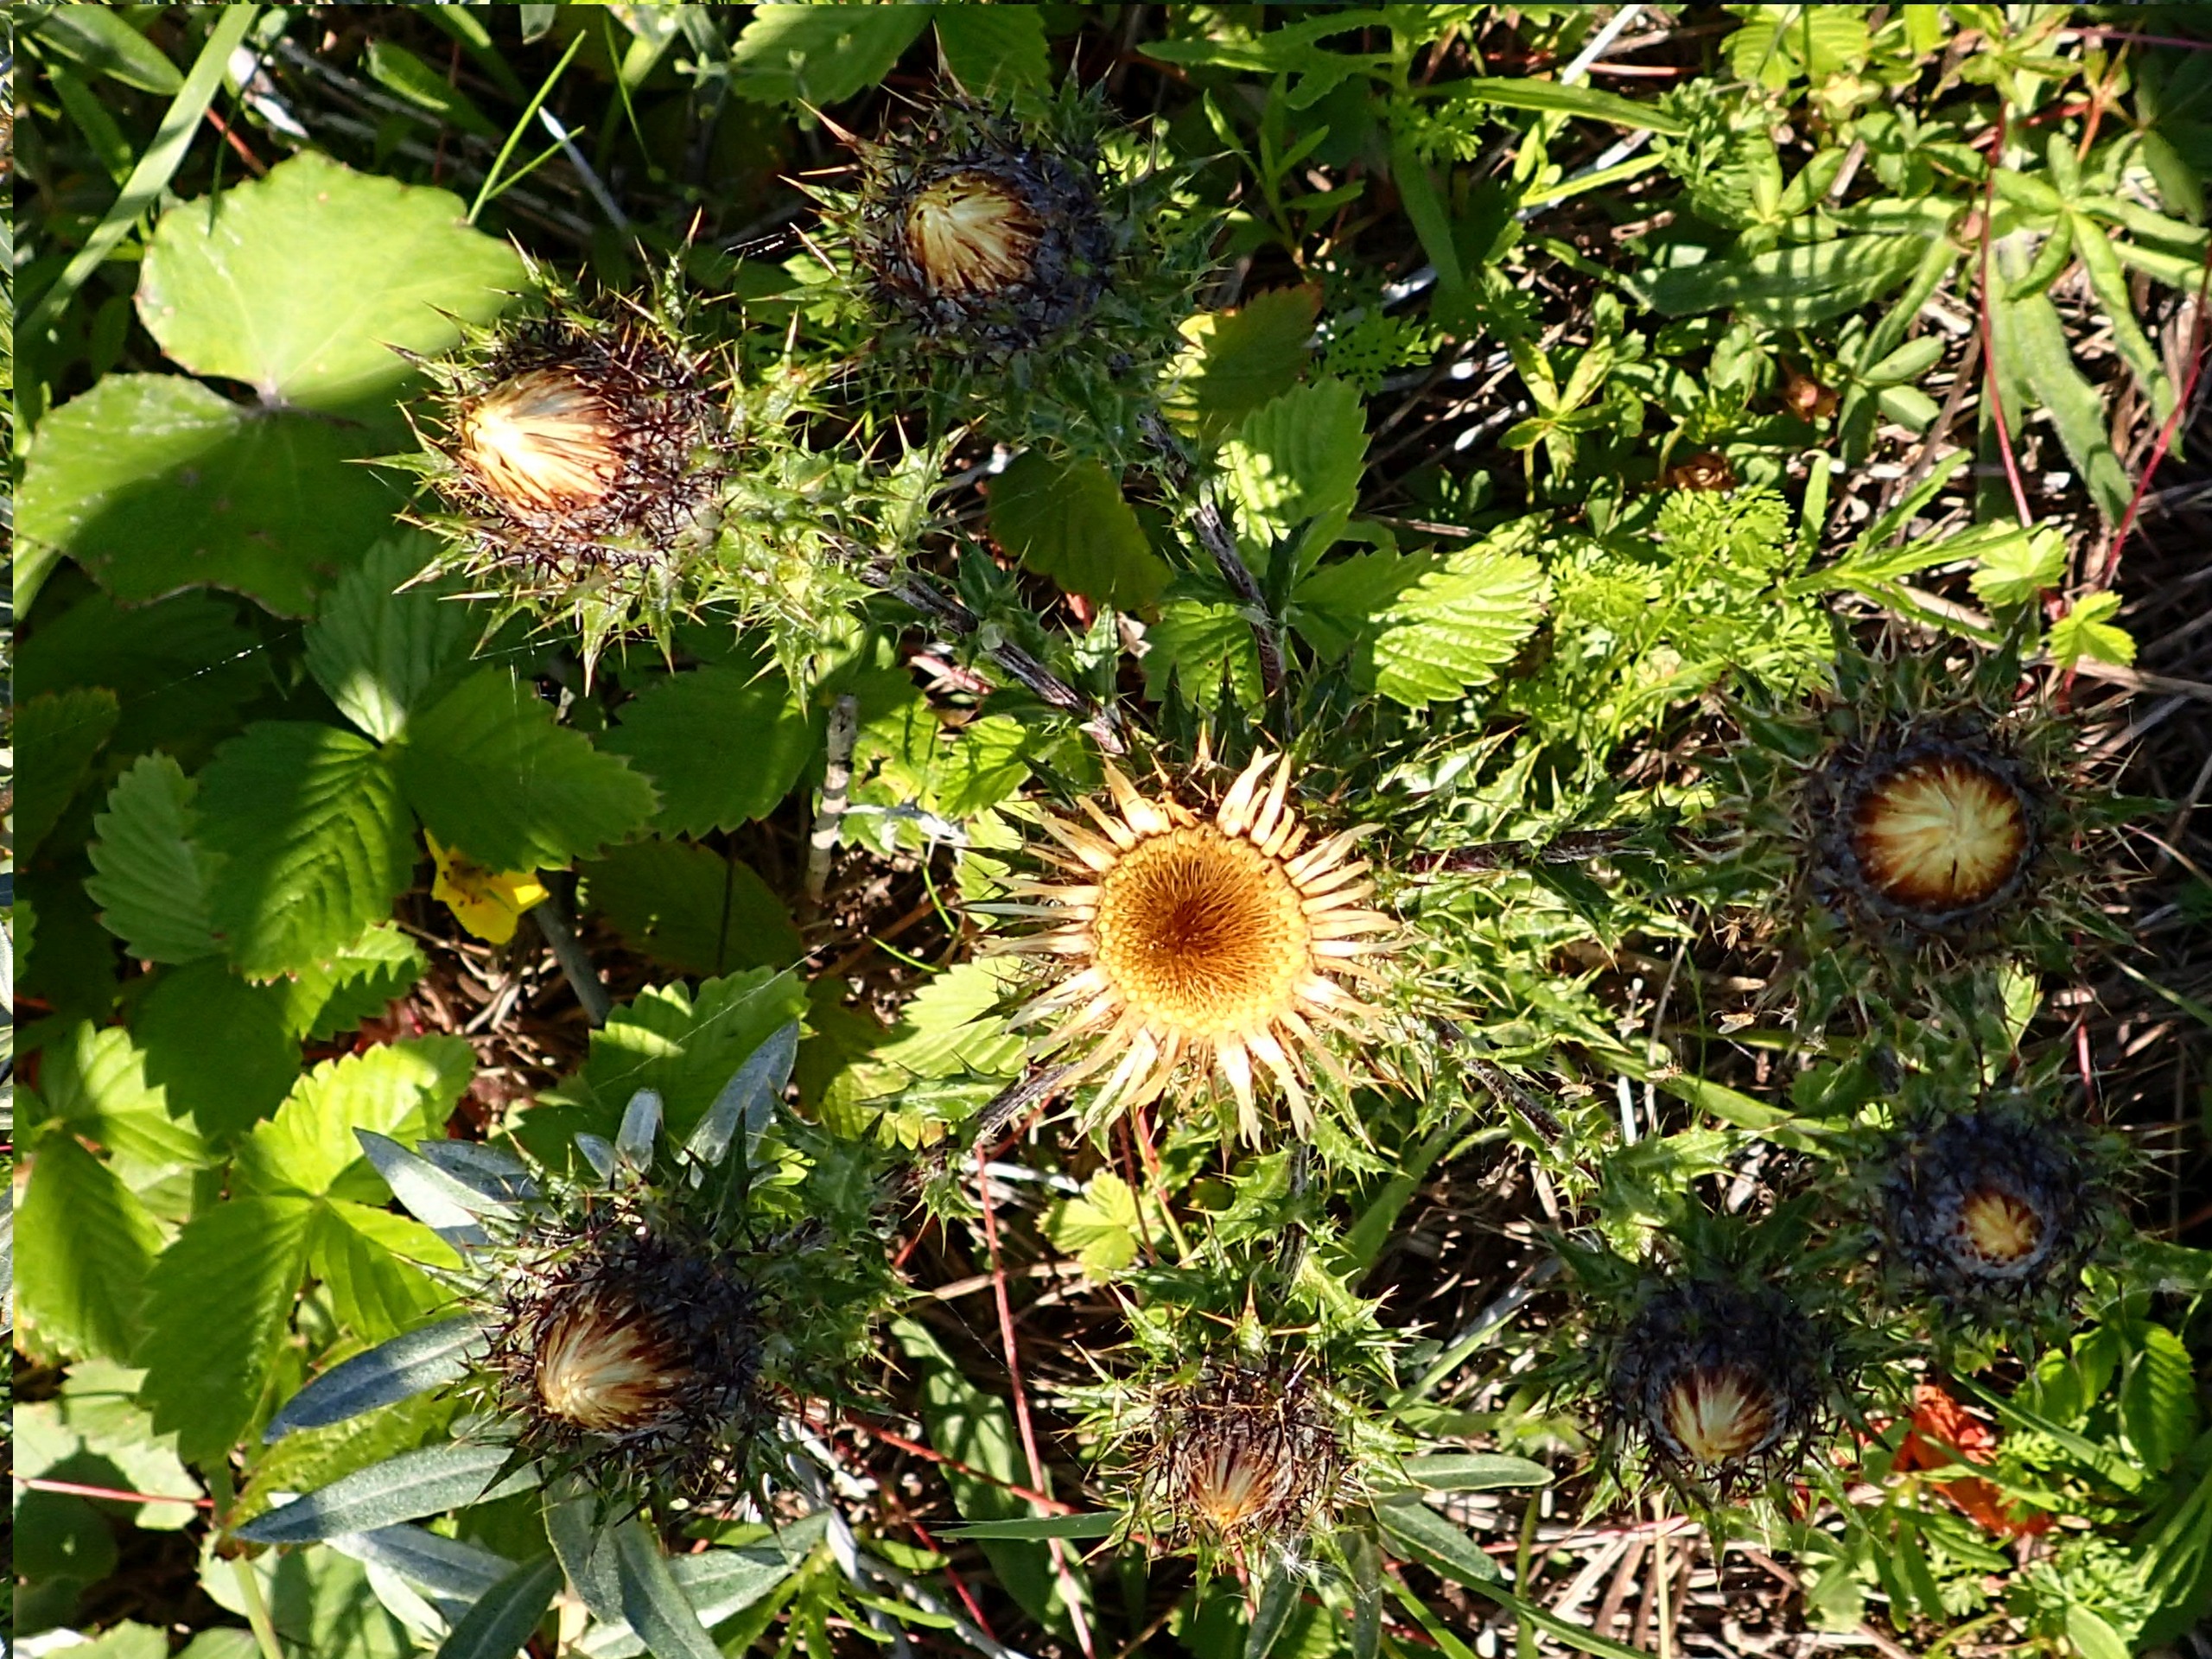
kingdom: Plantae
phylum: Tracheophyta
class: Magnoliopsida
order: Asterales
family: Asteraceae
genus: Carlina
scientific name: Carlina vulgaris
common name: Bakketidsel
